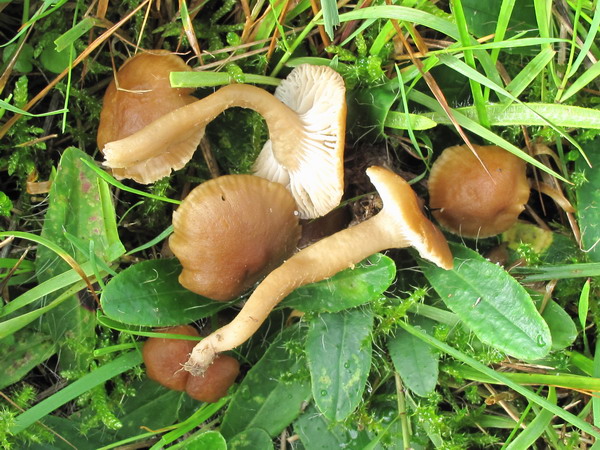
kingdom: Fungi
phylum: Basidiomycota
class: Agaricomycetes
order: Agaricales
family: Clavariaceae
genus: Camarophyllopsis
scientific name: Camarophyllopsis schulzeri
